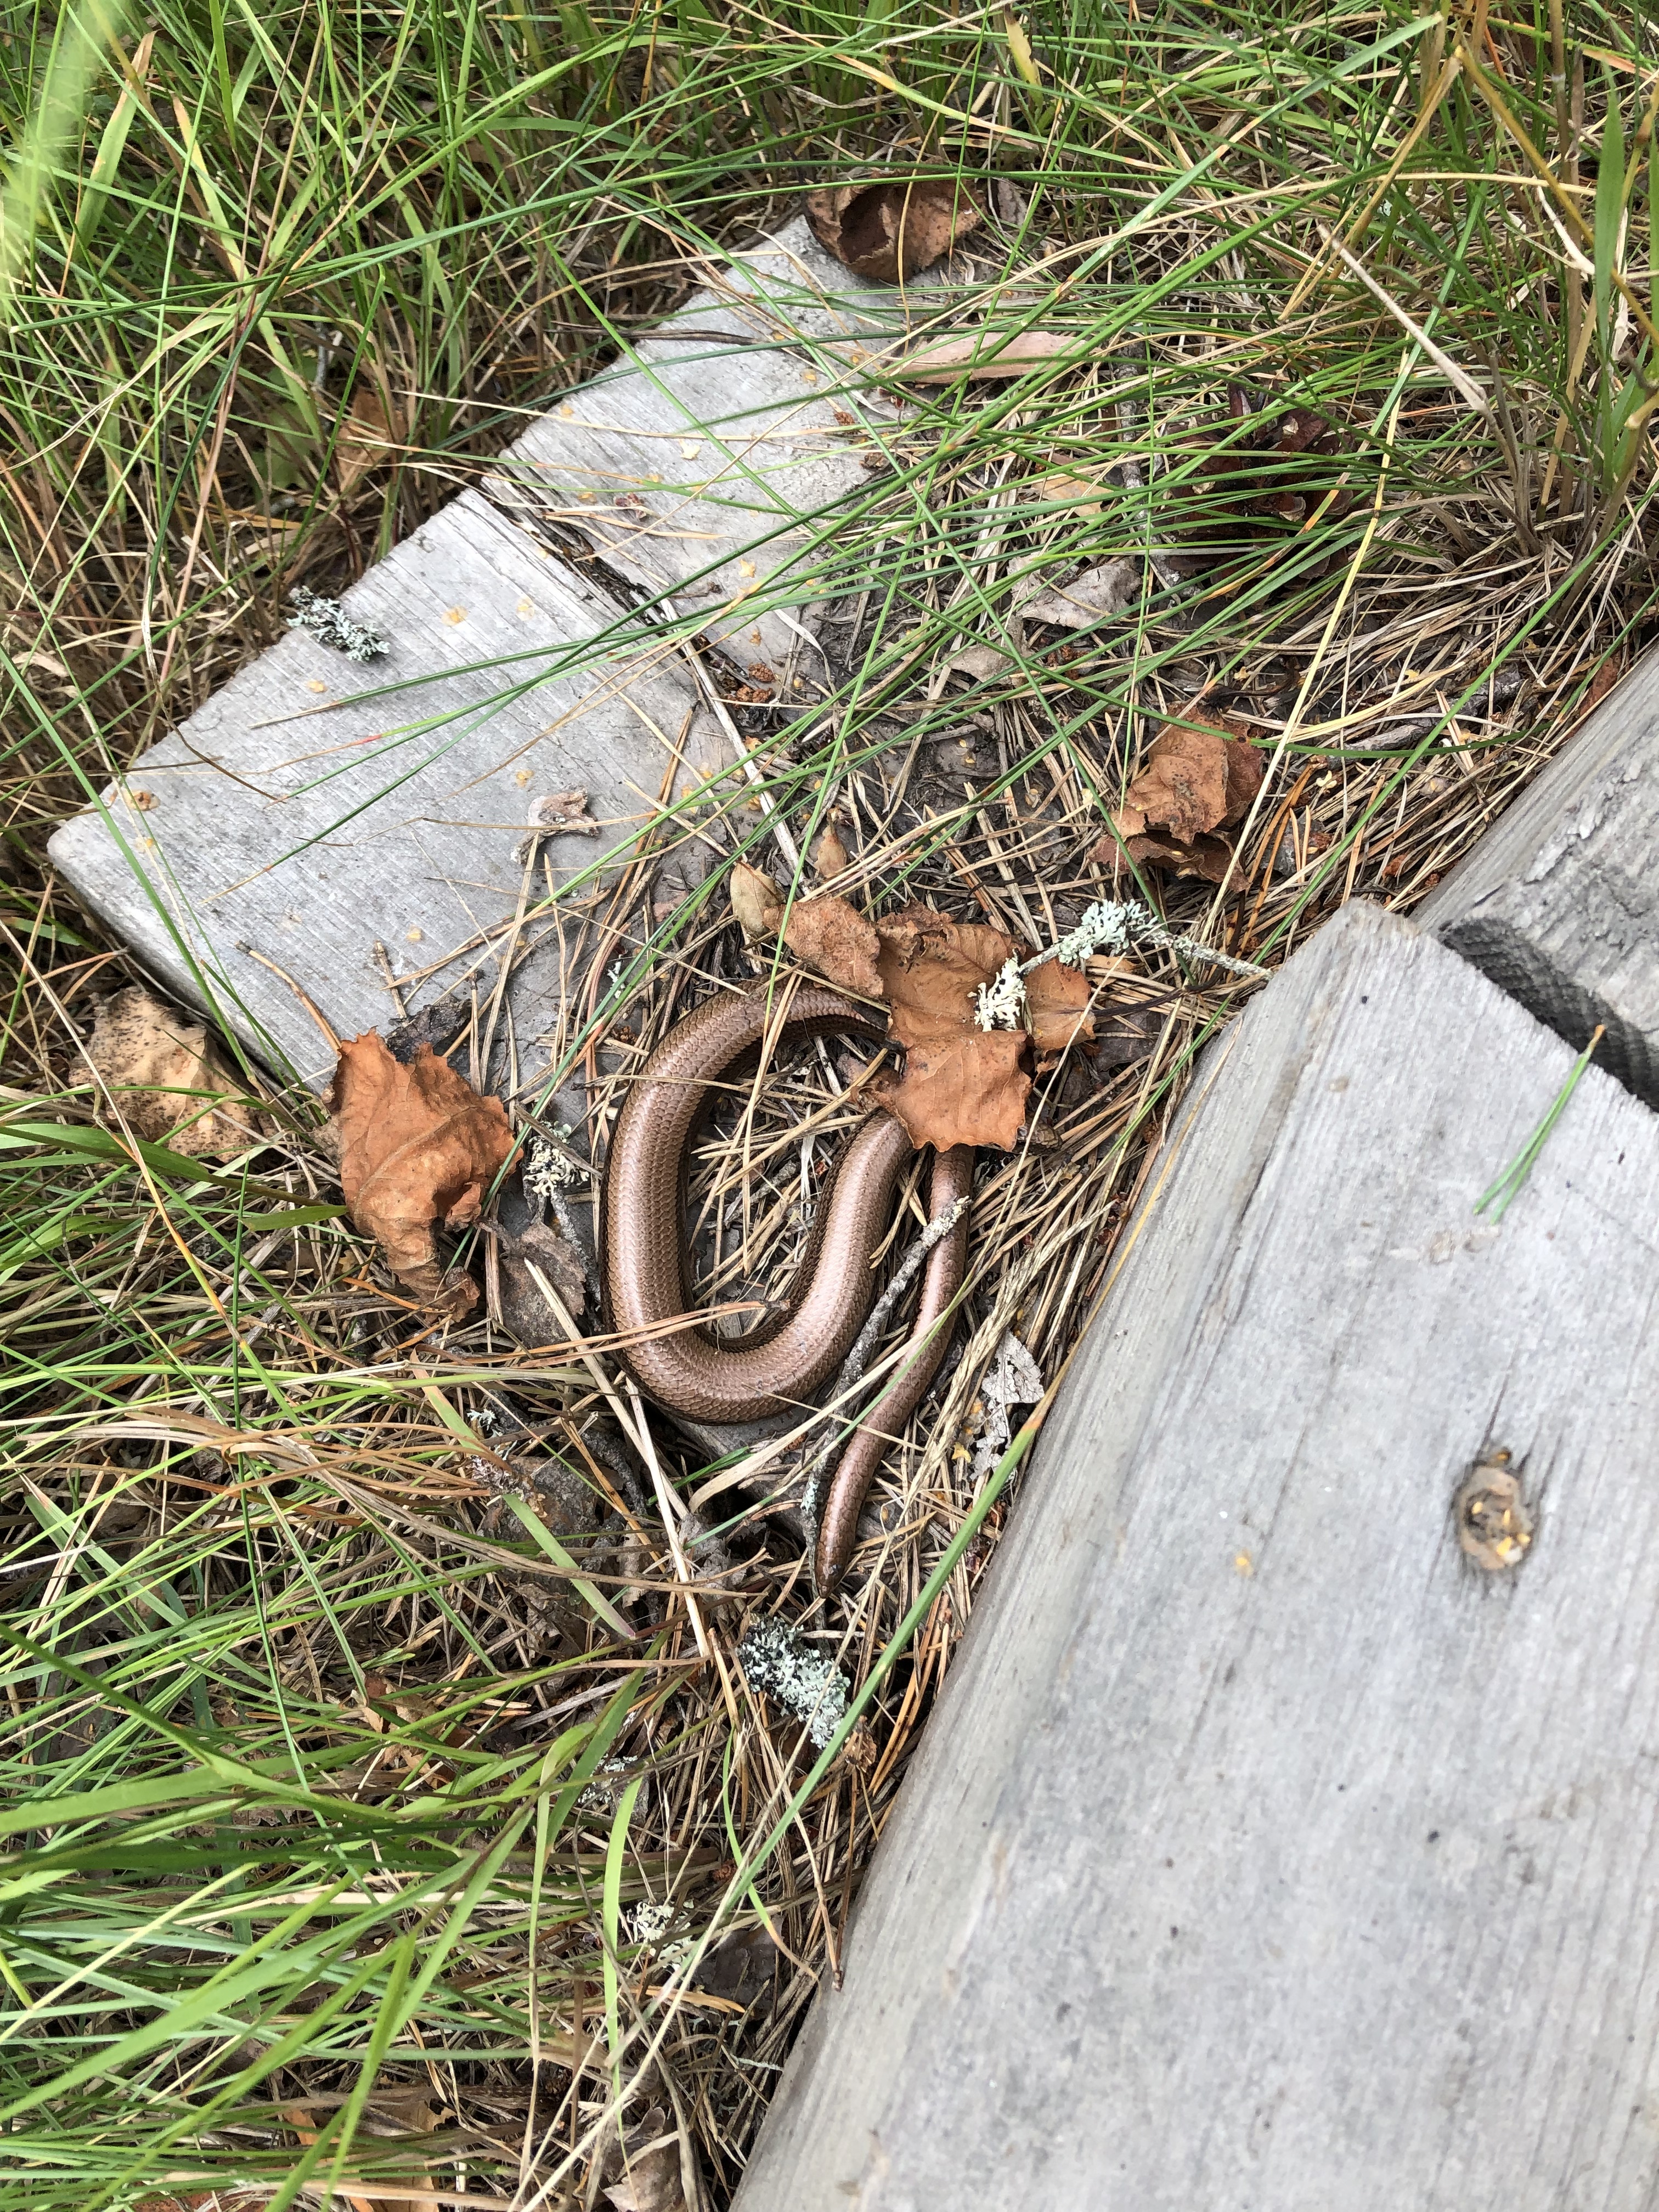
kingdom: Animalia
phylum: Chordata
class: Squamata
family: Anguidae
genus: Anguis
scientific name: Anguis colchica
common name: Slow worm
